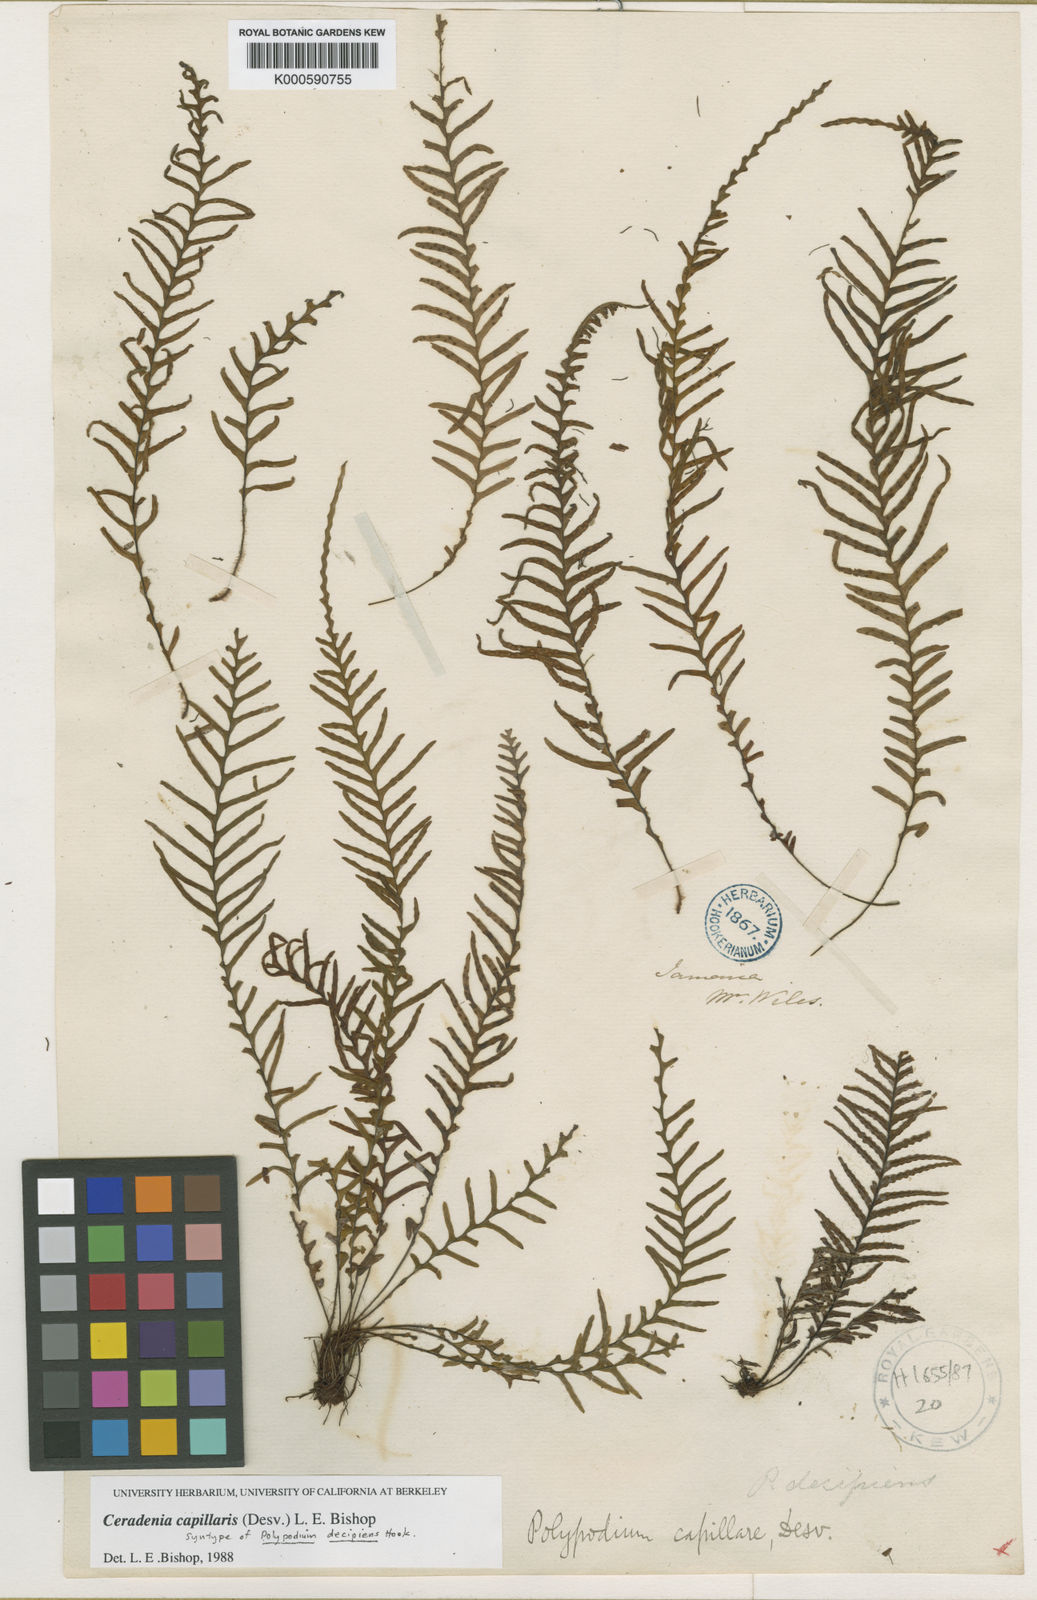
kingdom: Plantae
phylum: Tracheophyta
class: Polypodiopsida
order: Polypodiales
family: Polypodiaceae
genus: Ceradenia
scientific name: Ceradenia capillaris
